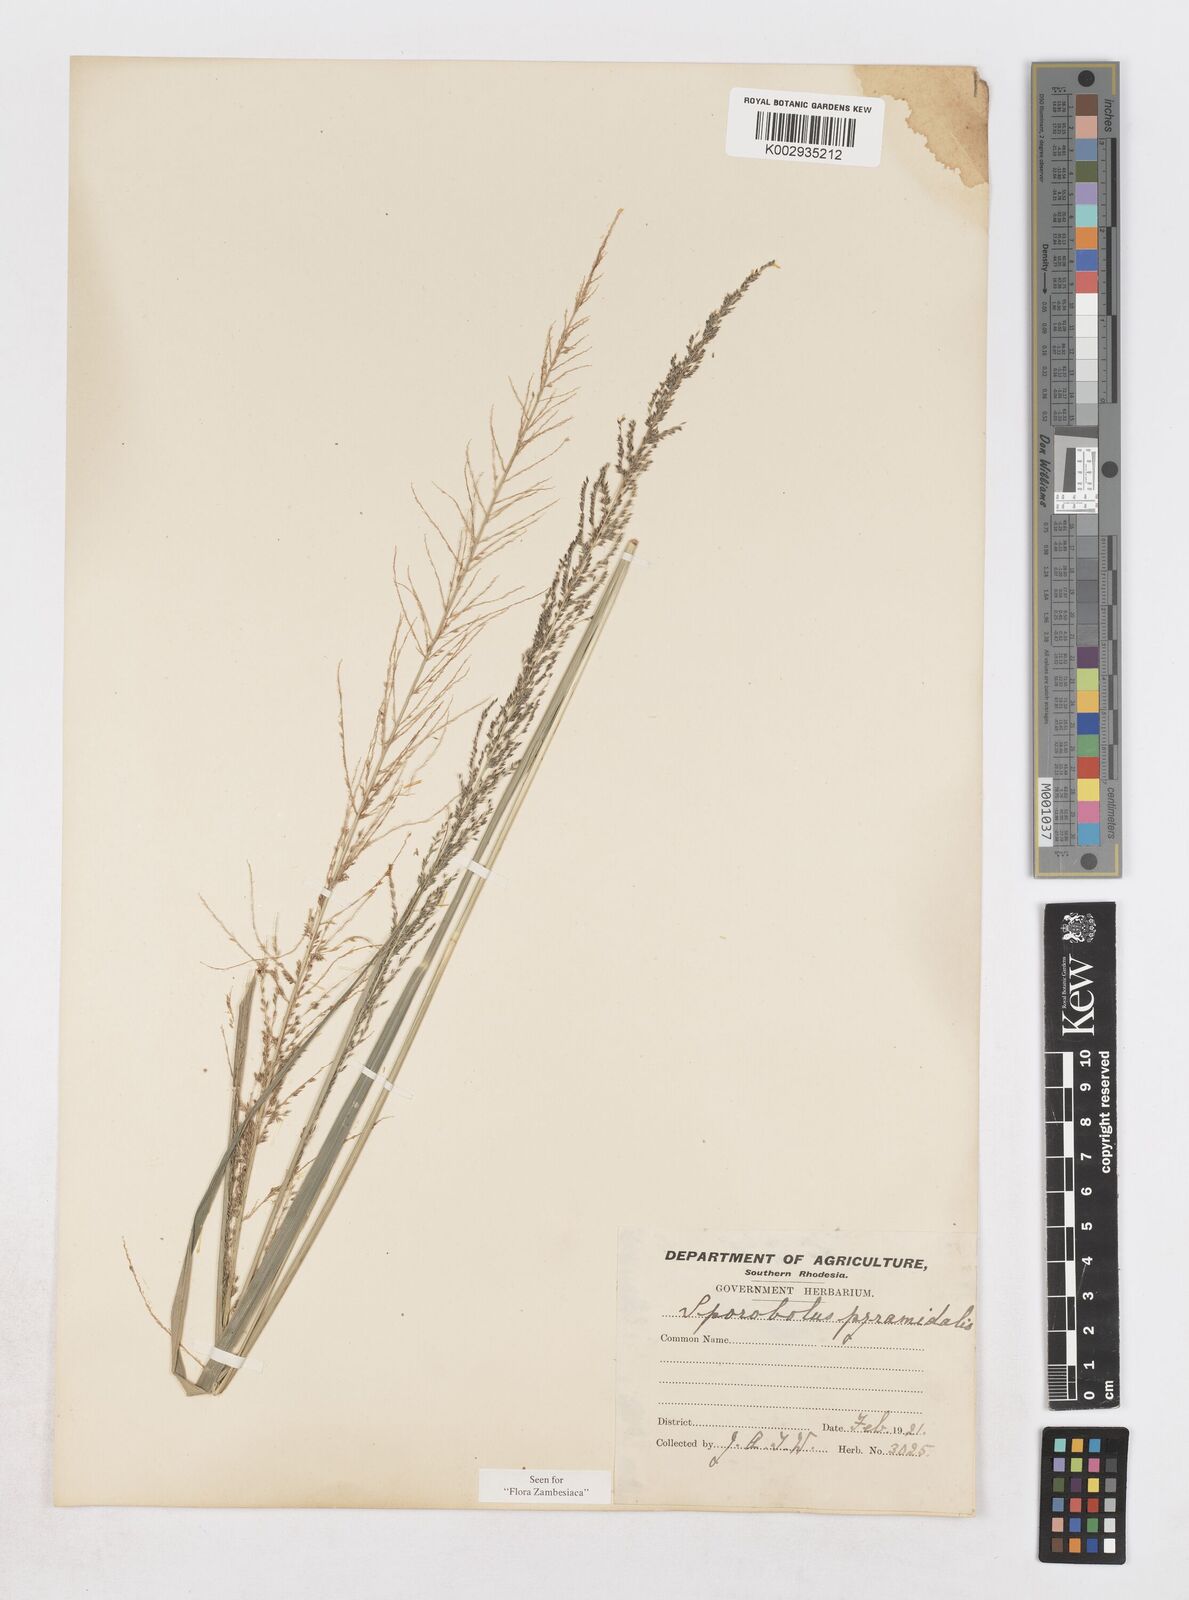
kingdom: Plantae
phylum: Tracheophyta
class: Liliopsida
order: Poales
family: Poaceae
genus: Sporobolus
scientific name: Sporobolus pyramidalis
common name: West indian dropseed
